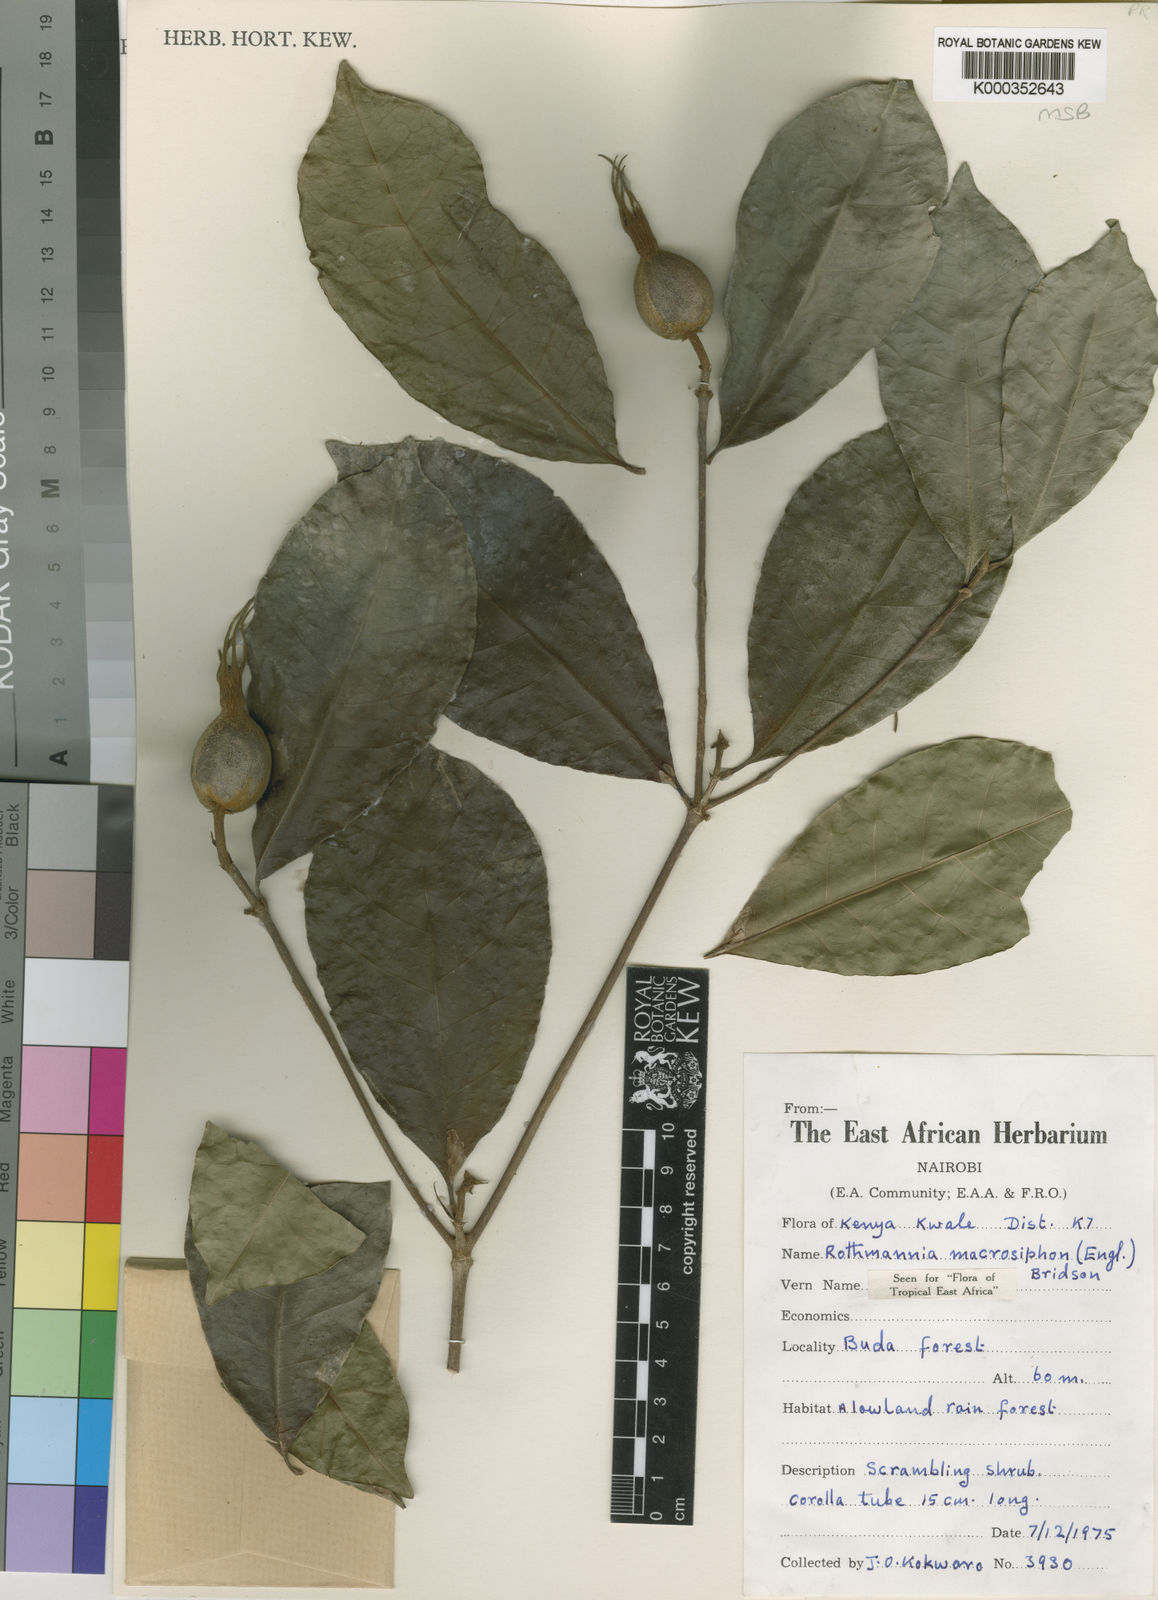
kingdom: Plantae
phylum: Tracheophyta
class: Magnoliopsida
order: Gentianales
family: Rubiaceae
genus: Rothmannia
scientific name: Rothmannia macrosiphon
